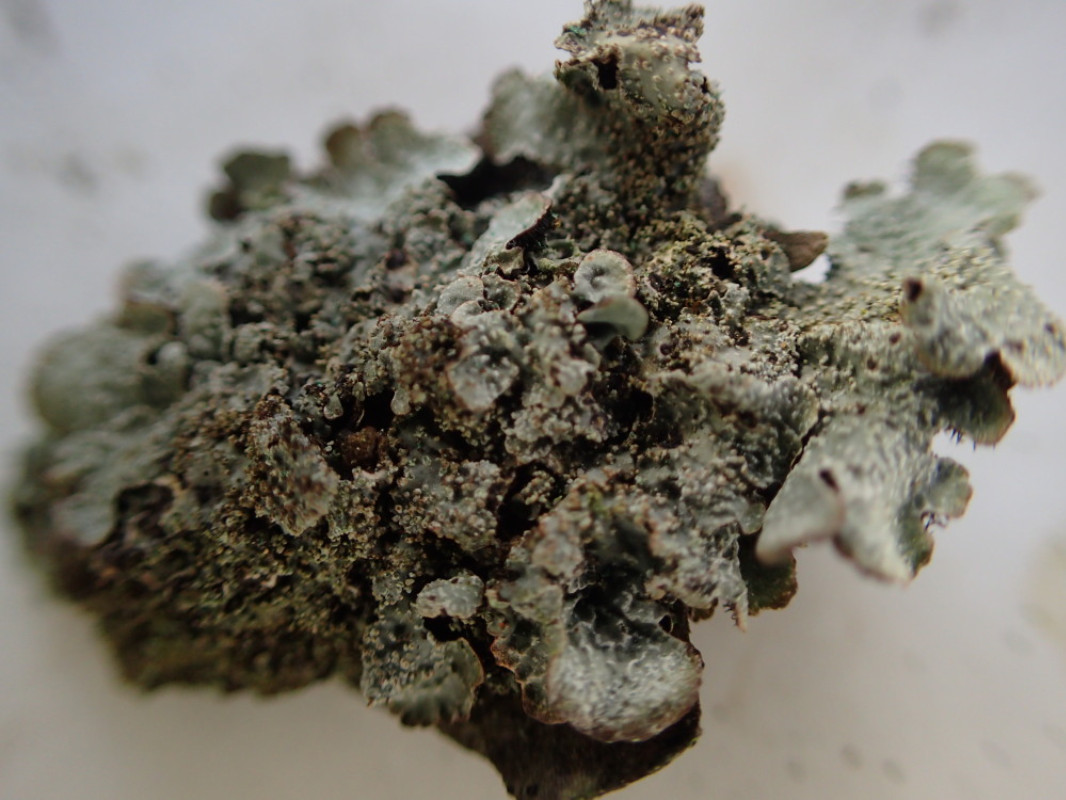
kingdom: Fungi
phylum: Ascomycota
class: Lecanoromycetes
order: Lecanorales
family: Parmeliaceae
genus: Parmelia
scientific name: Parmelia sulcata
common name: rynket skållav
